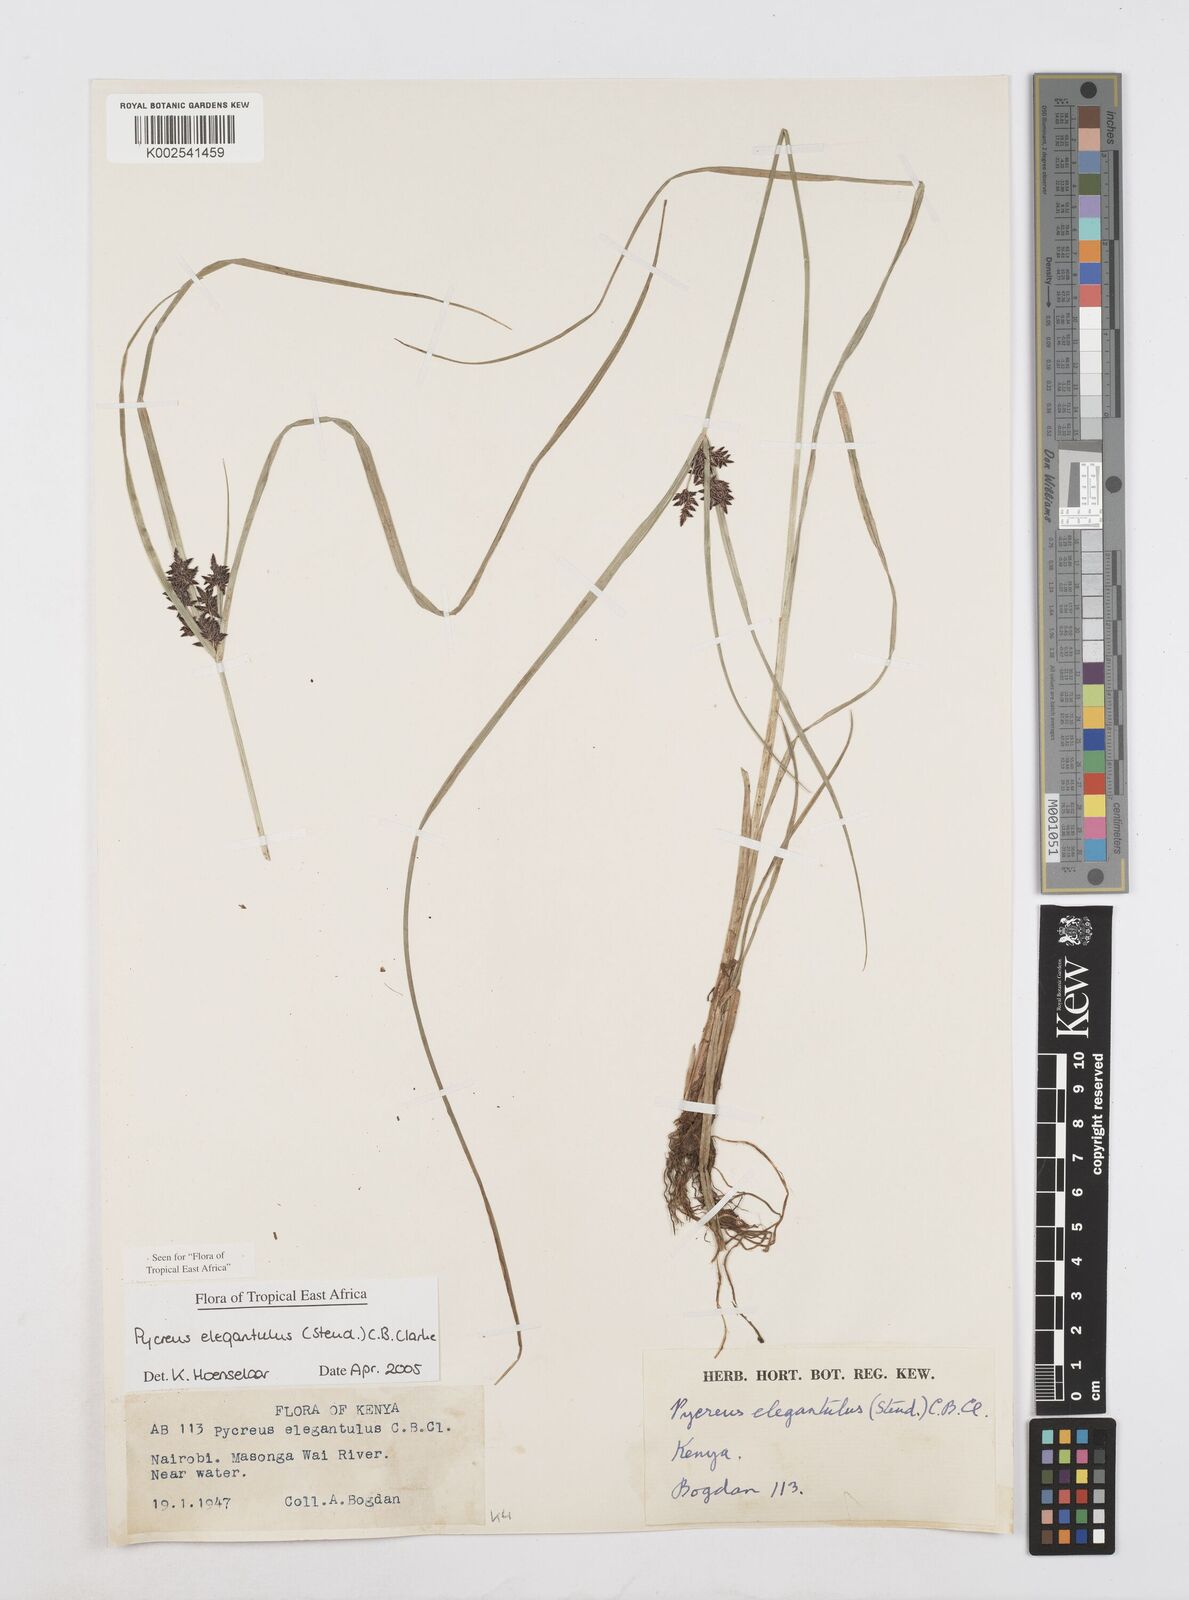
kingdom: Plantae
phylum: Tracheophyta
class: Liliopsida
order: Poales
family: Cyperaceae
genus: Cyperus
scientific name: Cyperus elegantulus
